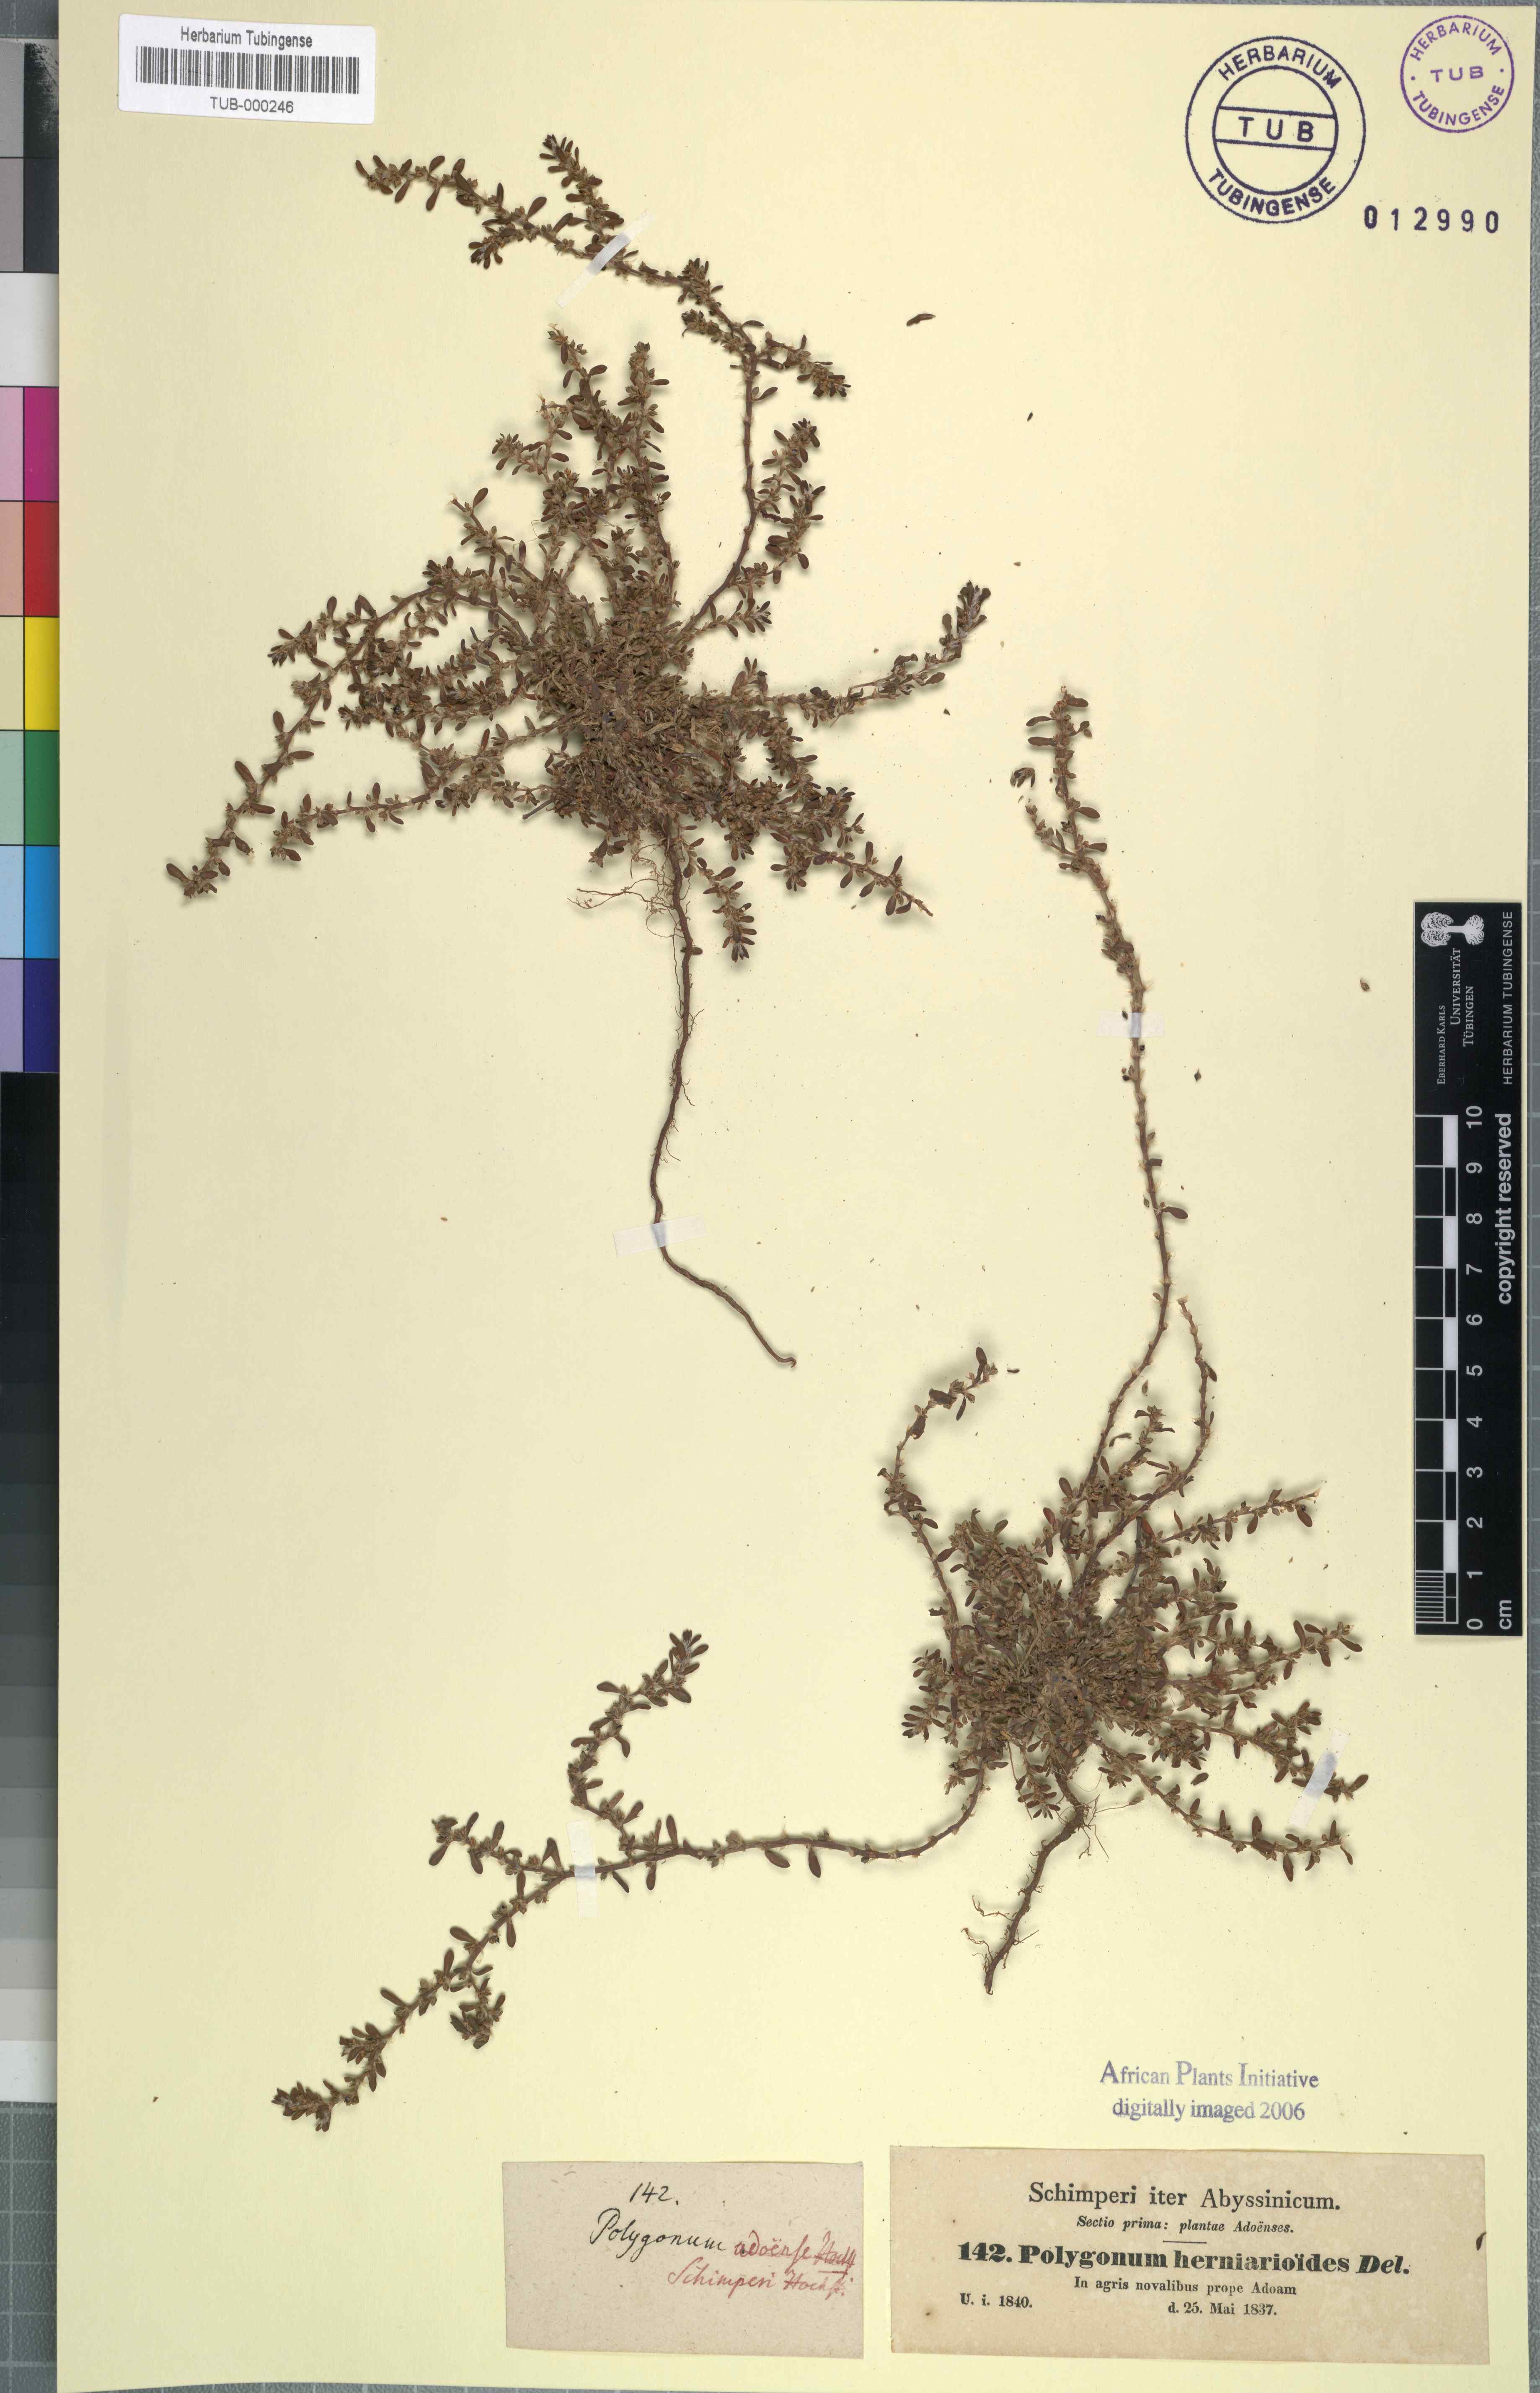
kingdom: Plantae
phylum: Tracheophyta
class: Magnoliopsida
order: Caryophyllales
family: Polygonaceae
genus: Polygonum
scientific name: Polygonum plebeium
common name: Common knotweed
